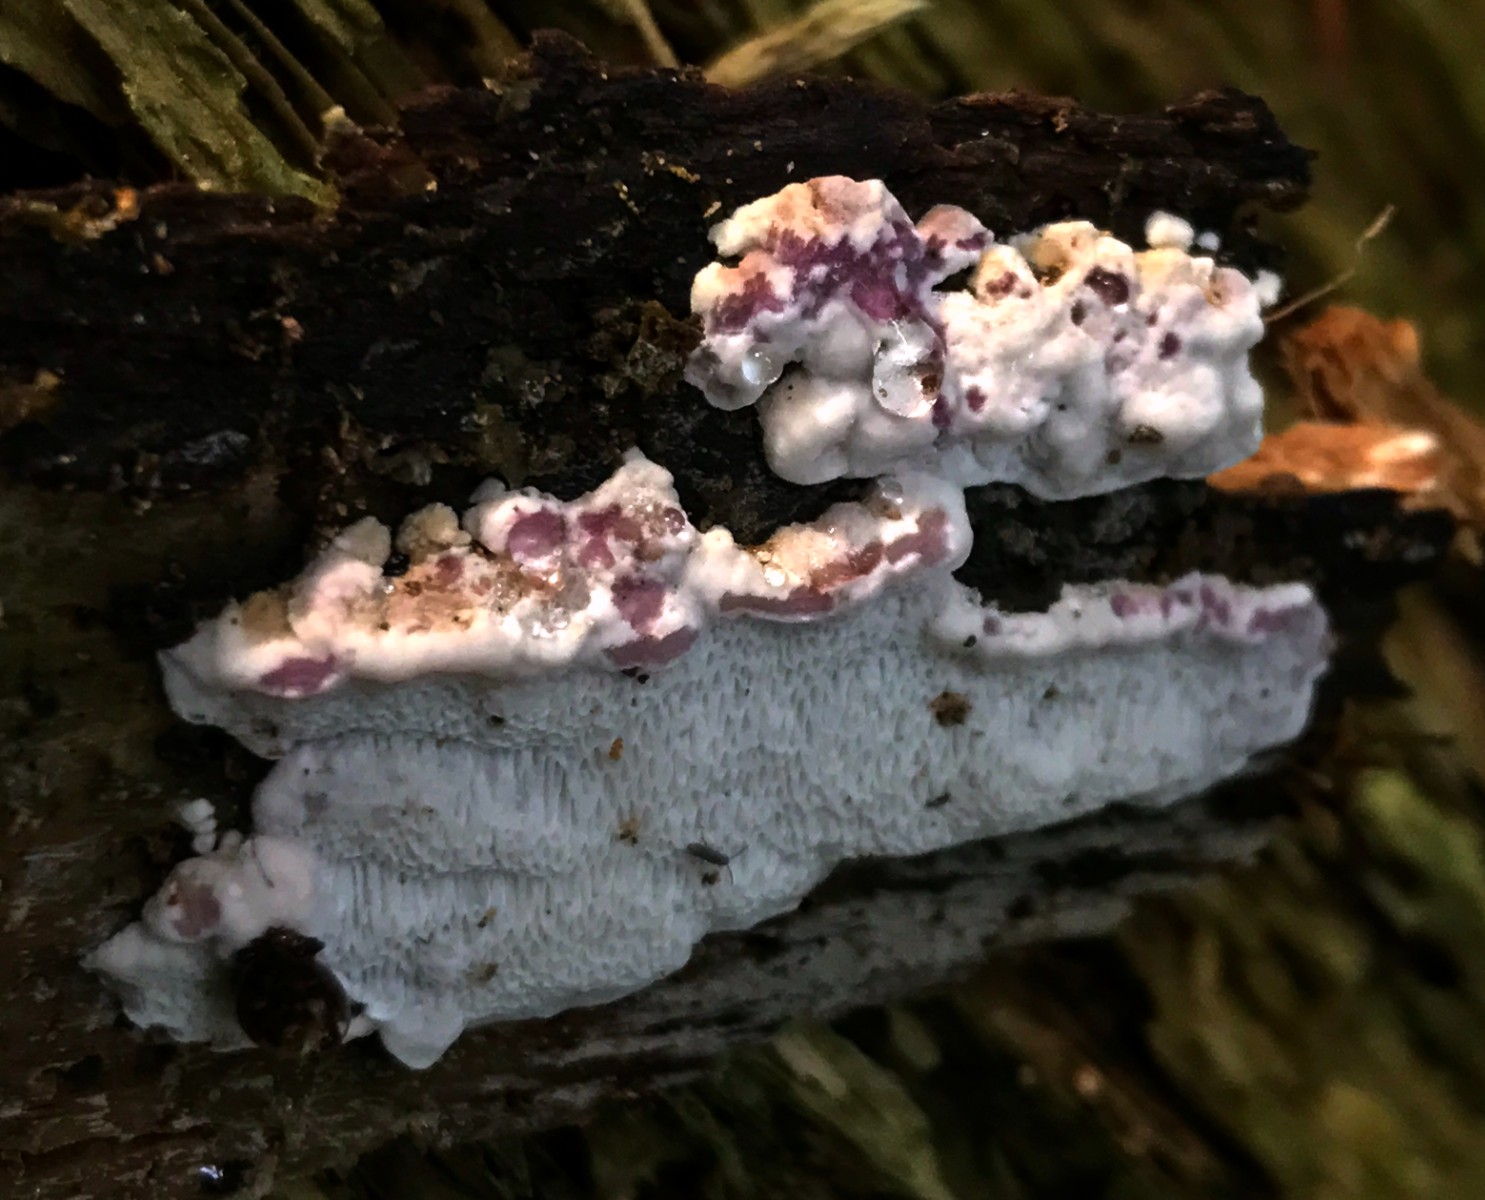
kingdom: Fungi
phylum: Basidiomycota
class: Agaricomycetes
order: Polyporales
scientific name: Polyporales
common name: poresvampordenen
